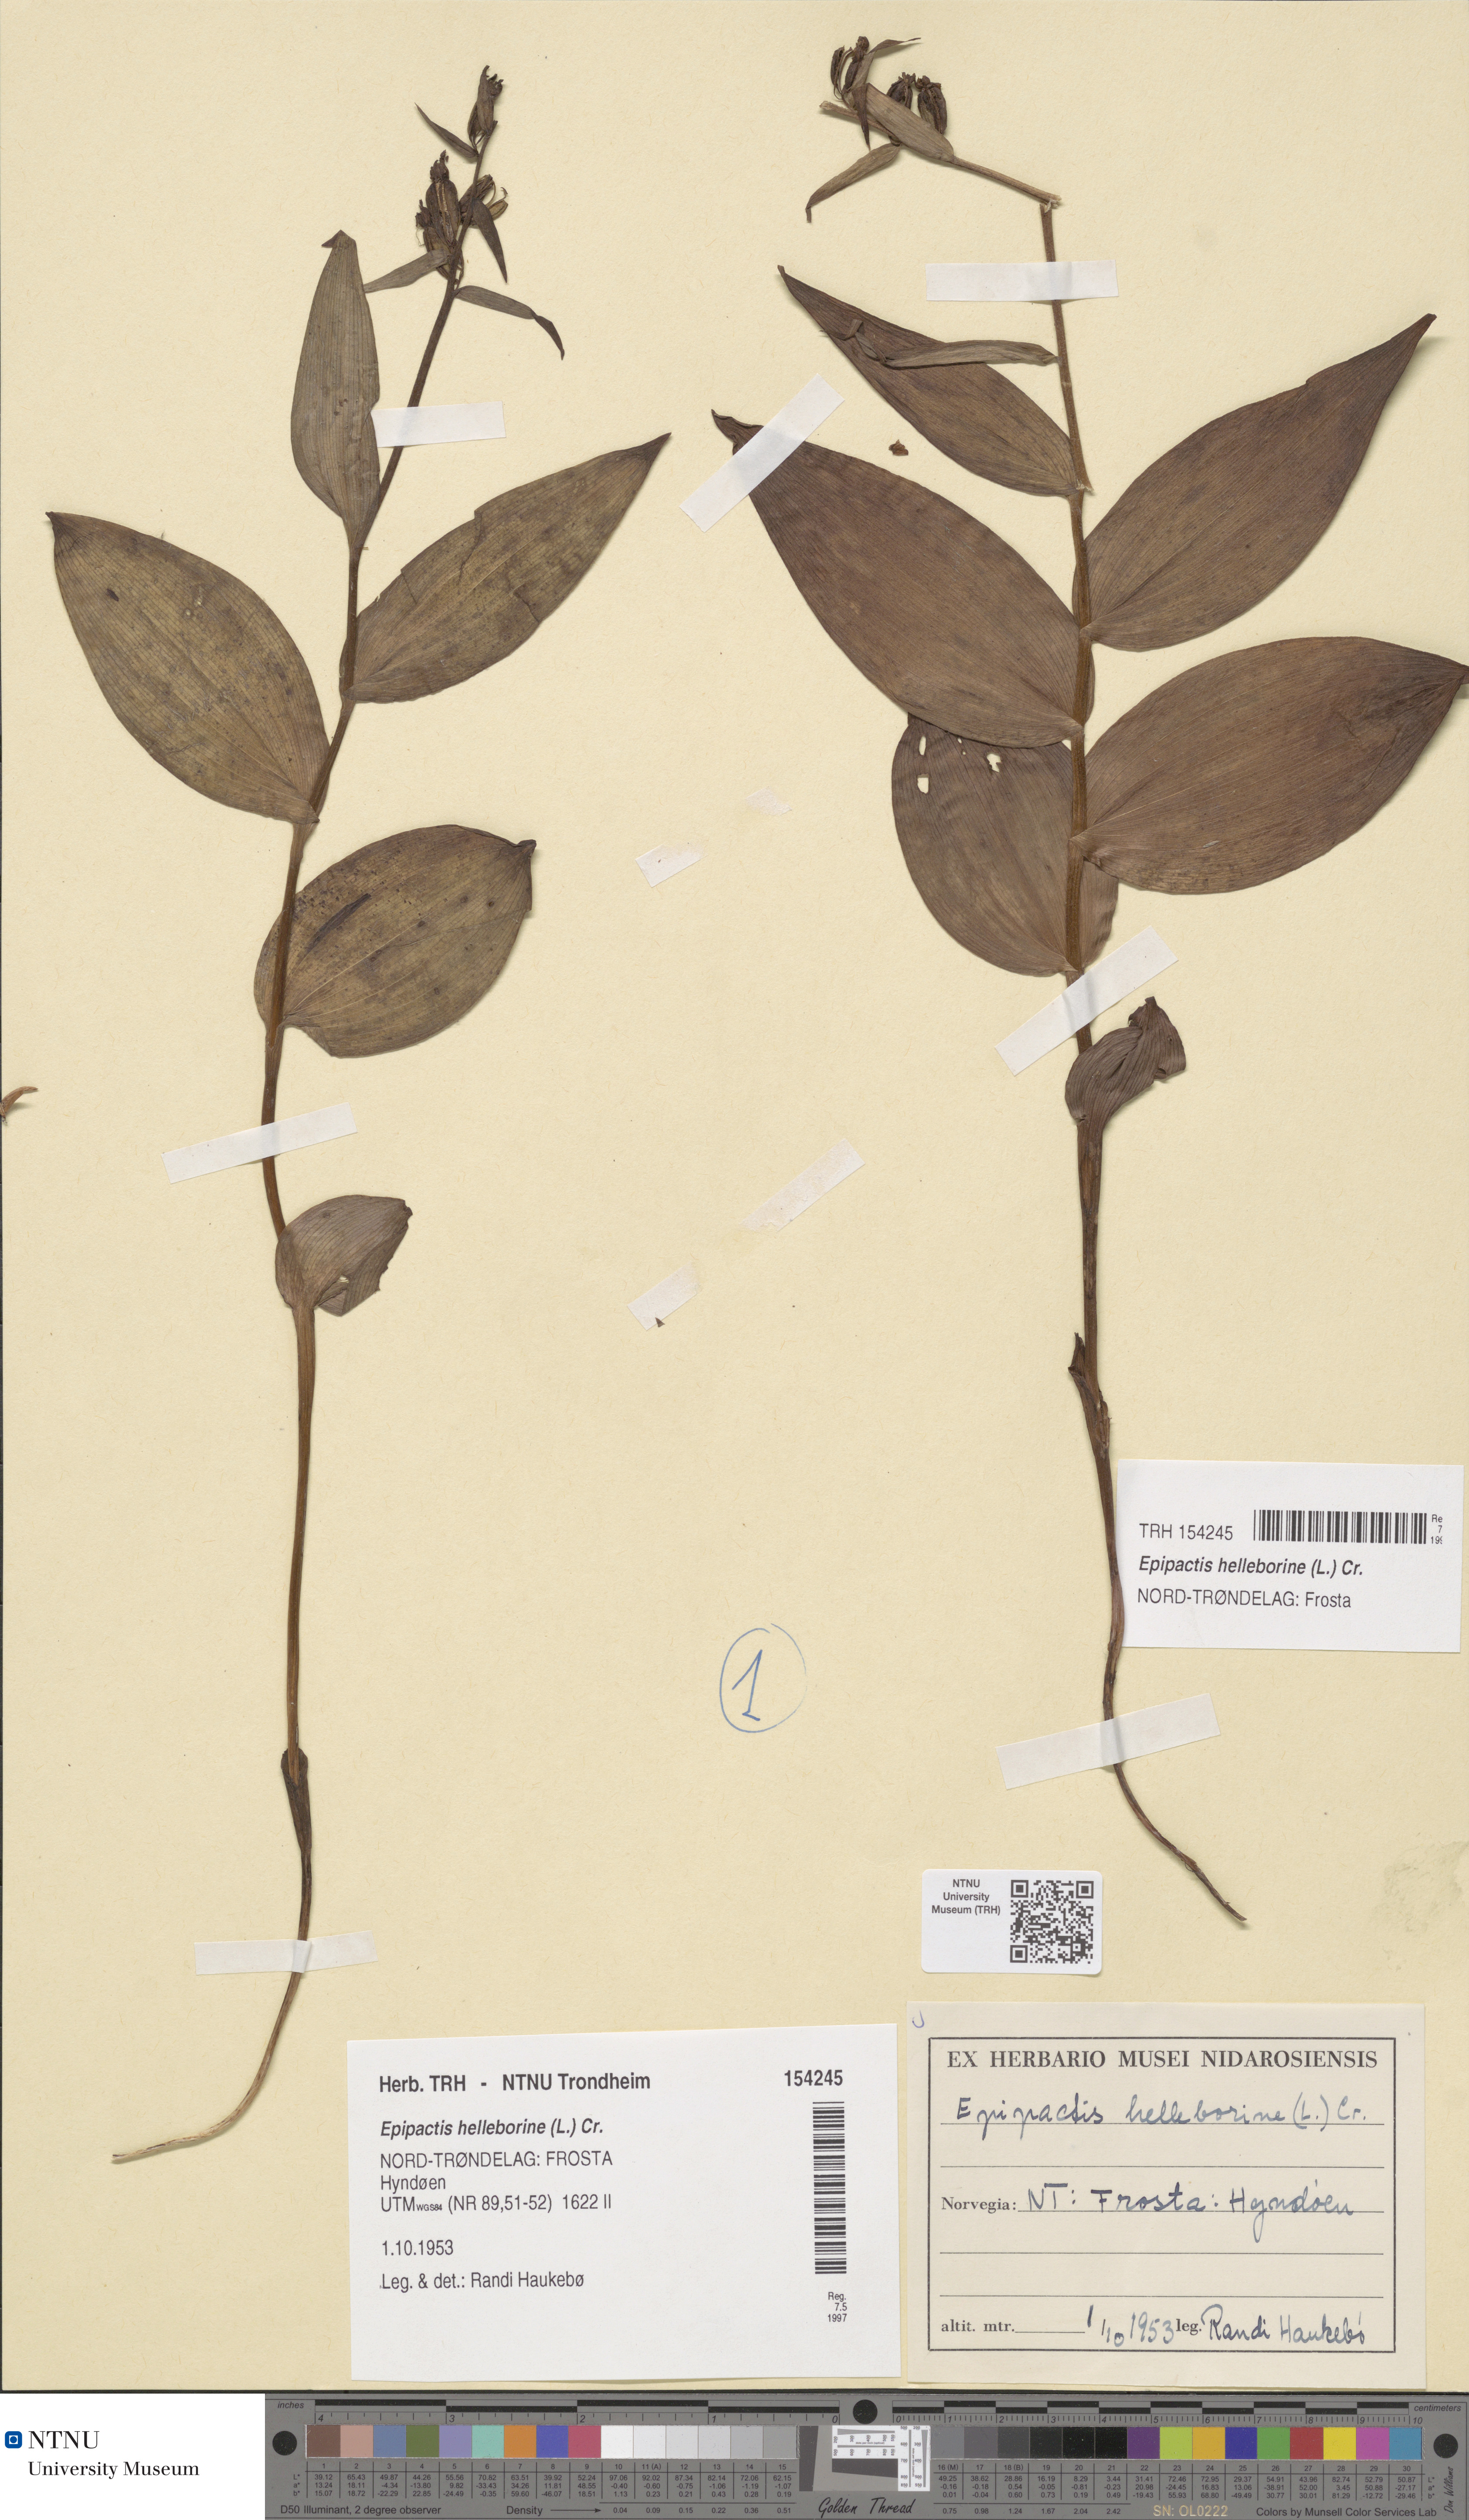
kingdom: Plantae
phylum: Tracheophyta
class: Liliopsida
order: Asparagales
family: Orchidaceae
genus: Epipactis
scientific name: Epipactis helleborine
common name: Broad-leaved helleborine
